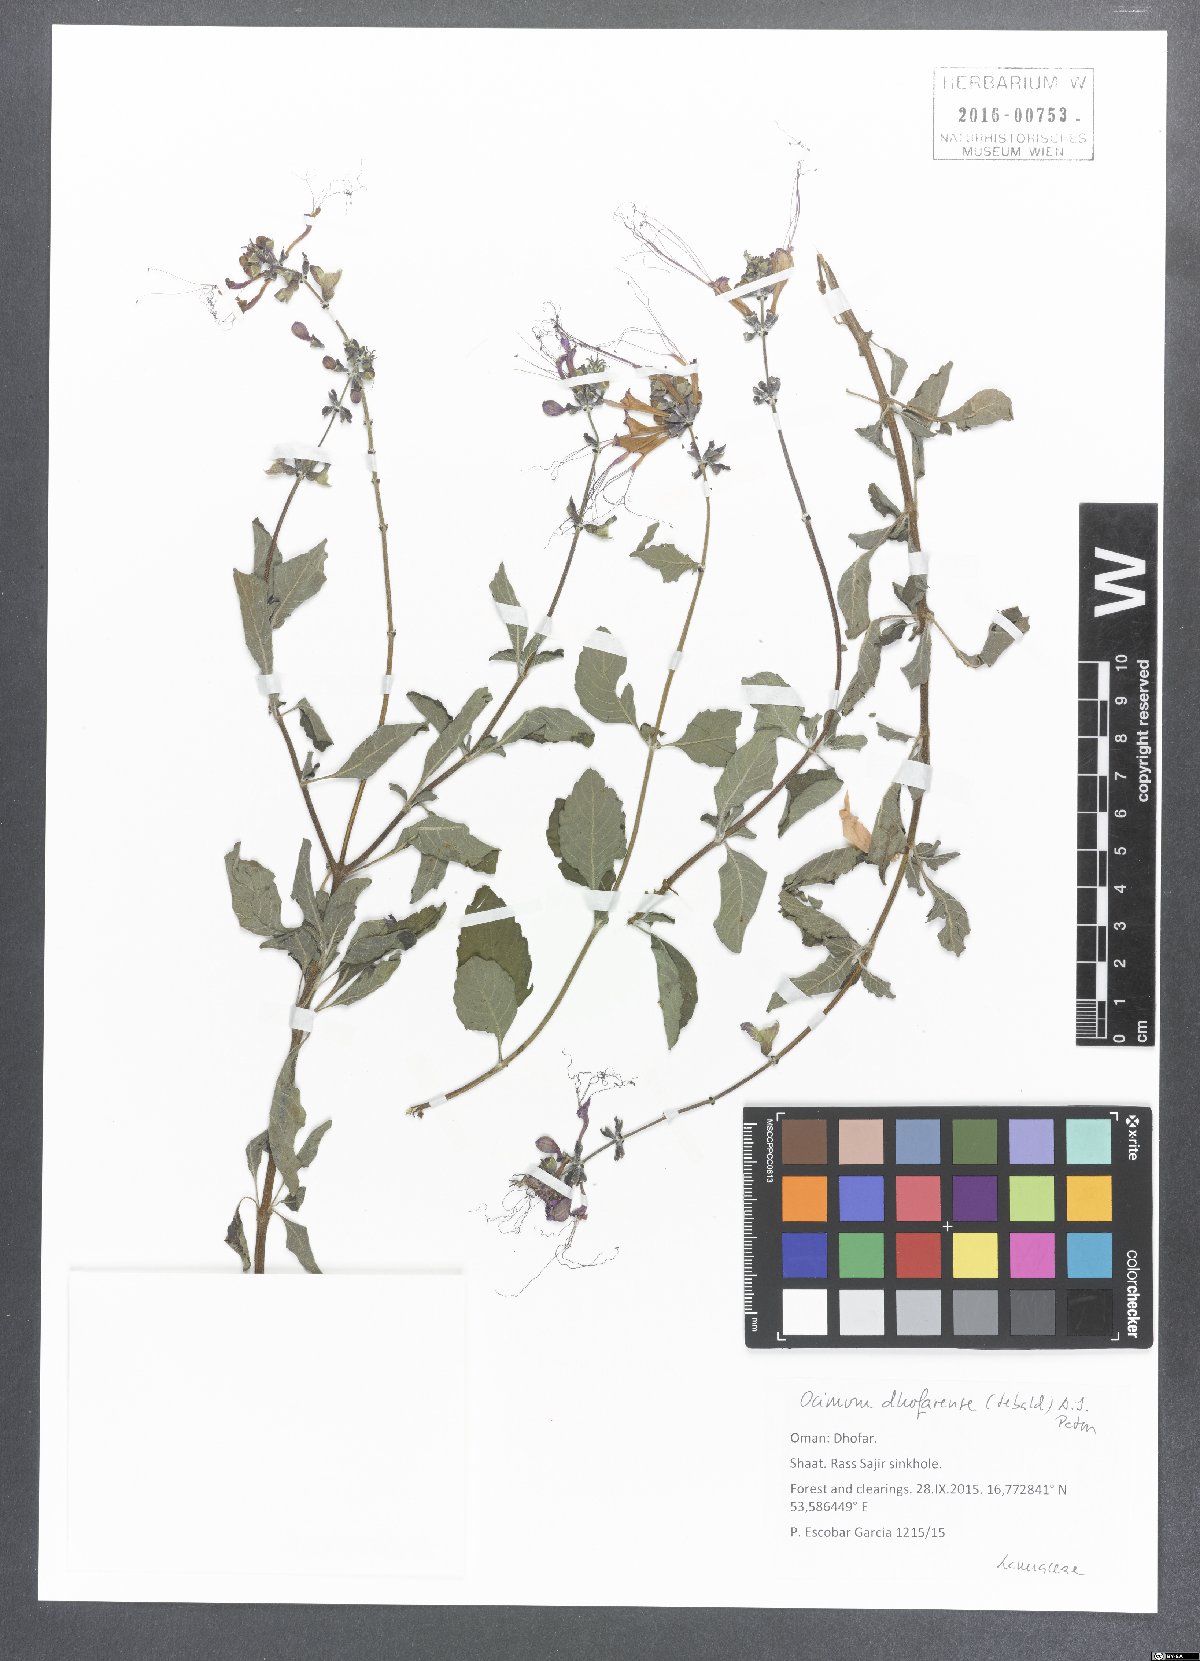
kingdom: Plantae
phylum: Tracheophyta
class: Magnoliopsida
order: Lamiales
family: Lamiaceae
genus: Ocimum
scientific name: Ocimum dhofarense
